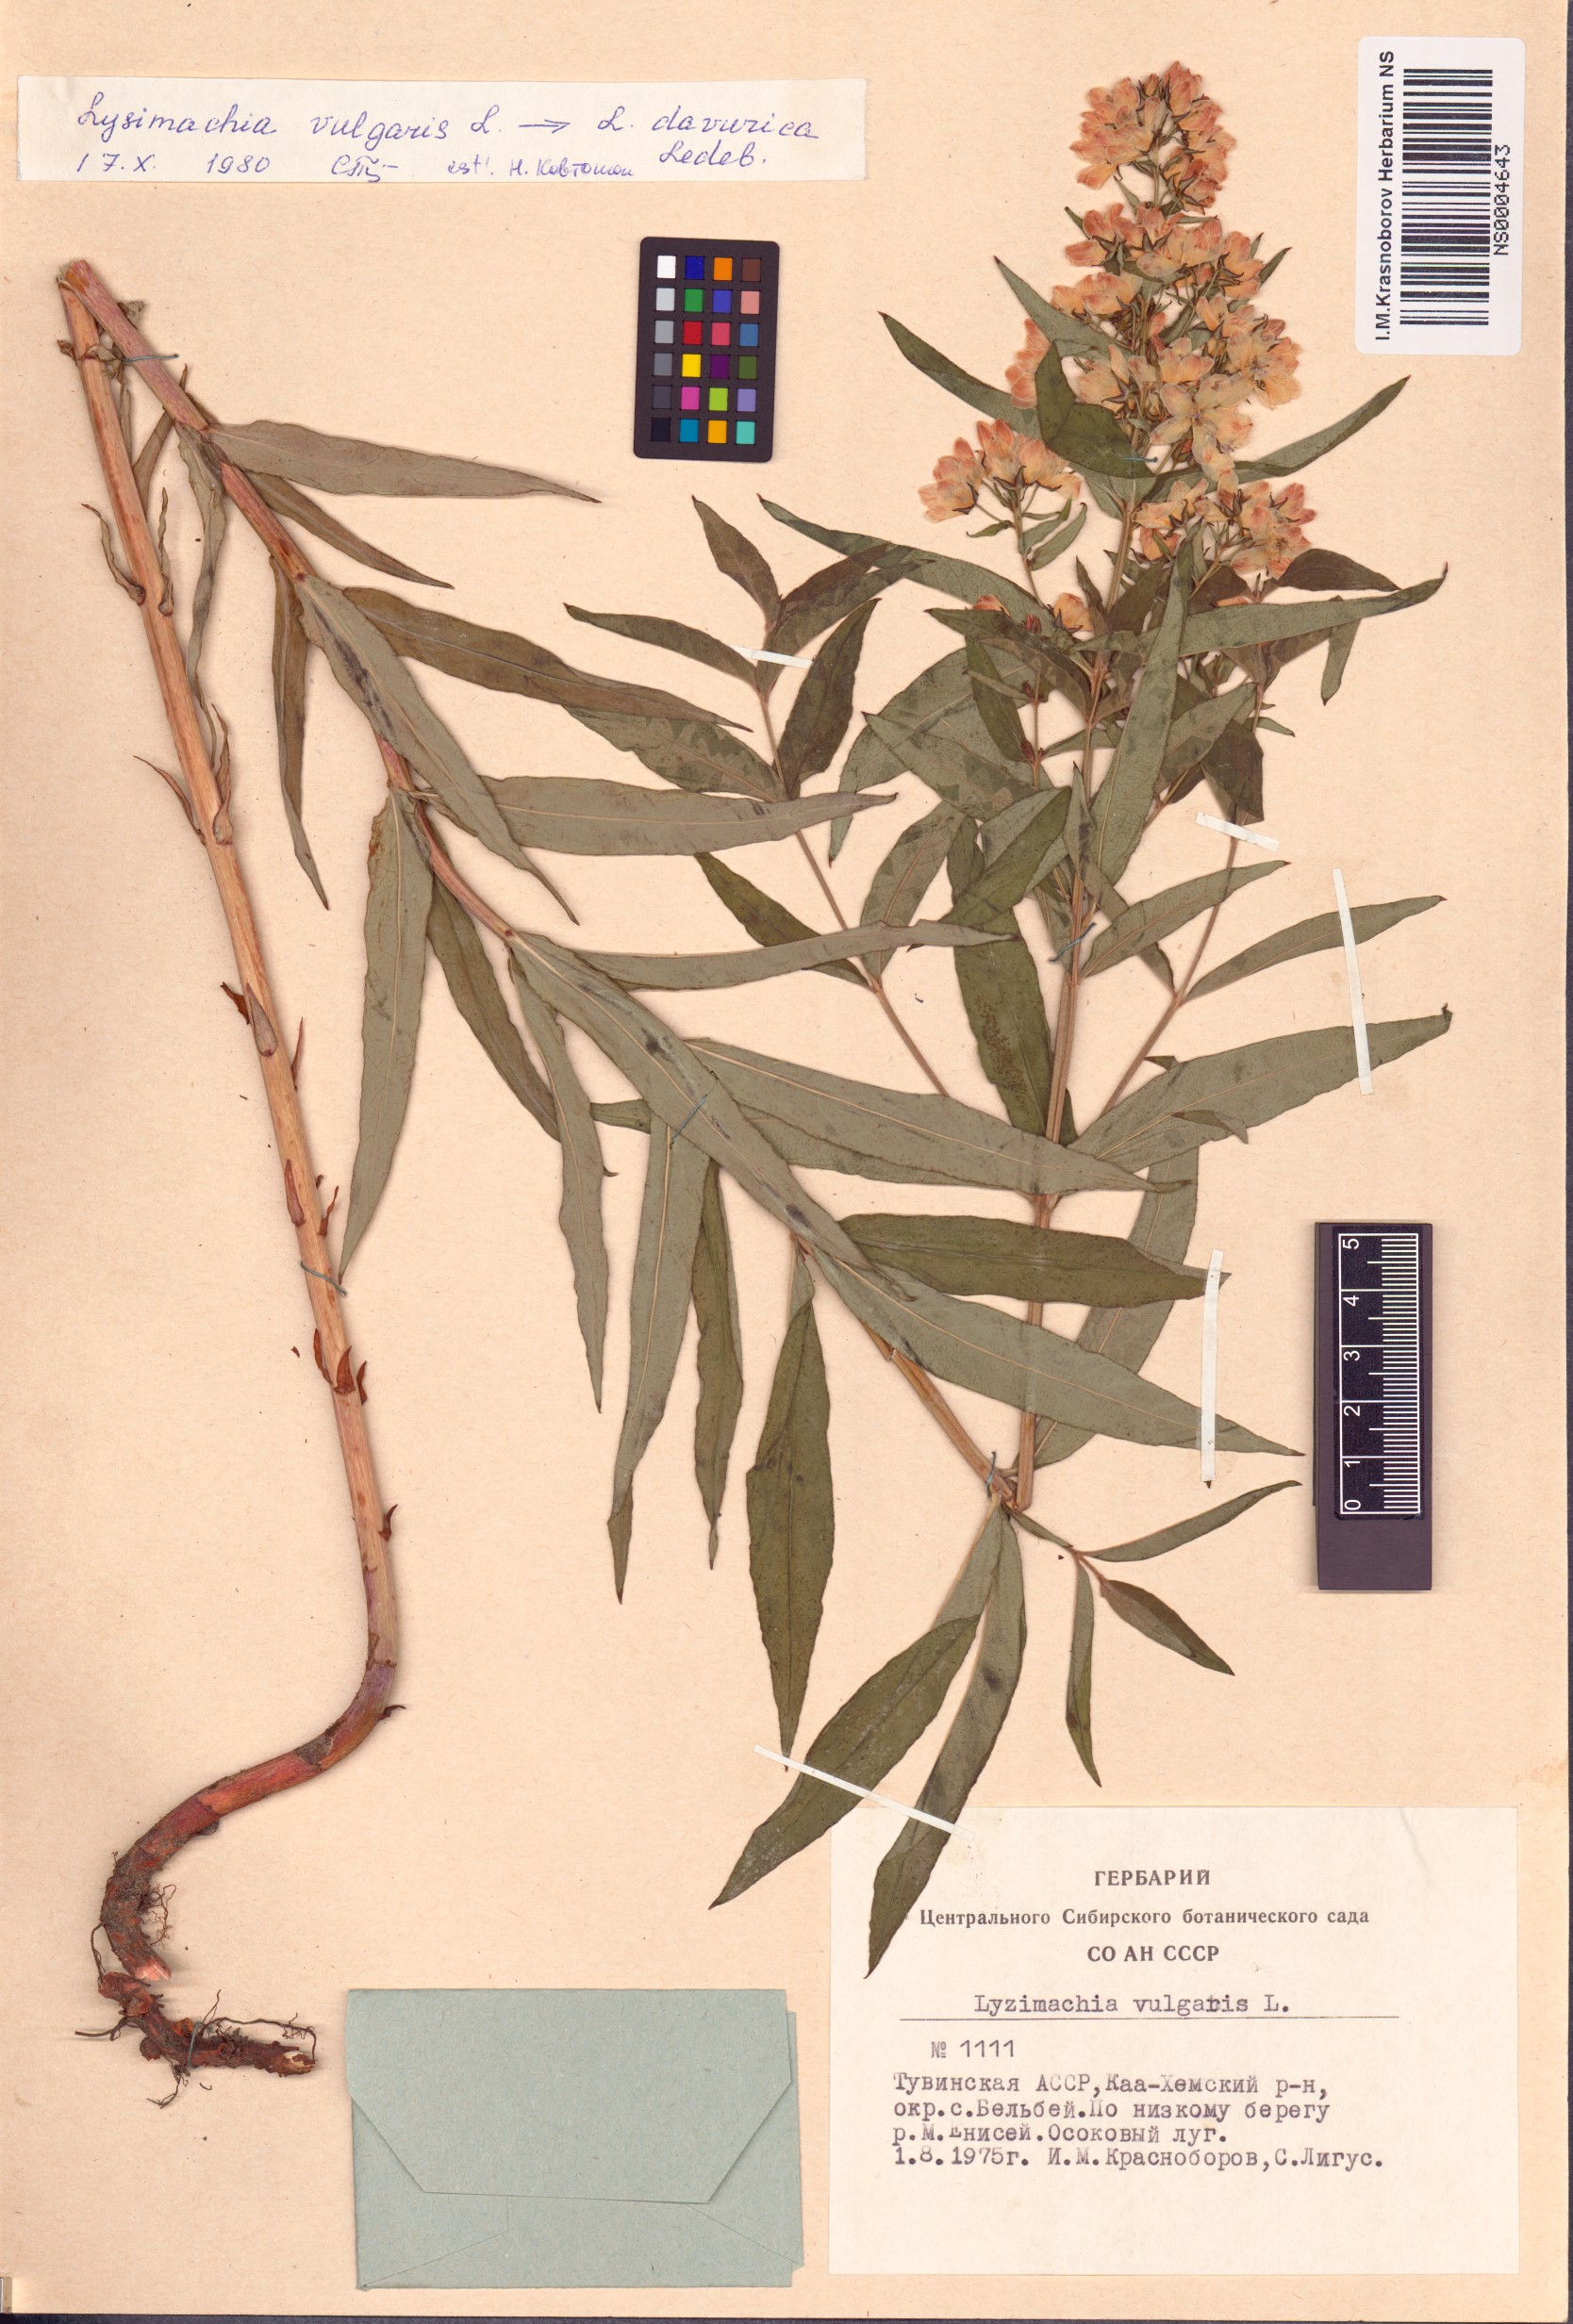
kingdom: Plantae
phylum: Tracheophyta
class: Magnoliopsida
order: Ericales
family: Primulaceae
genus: Lysimachia
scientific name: Lysimachia davurica
